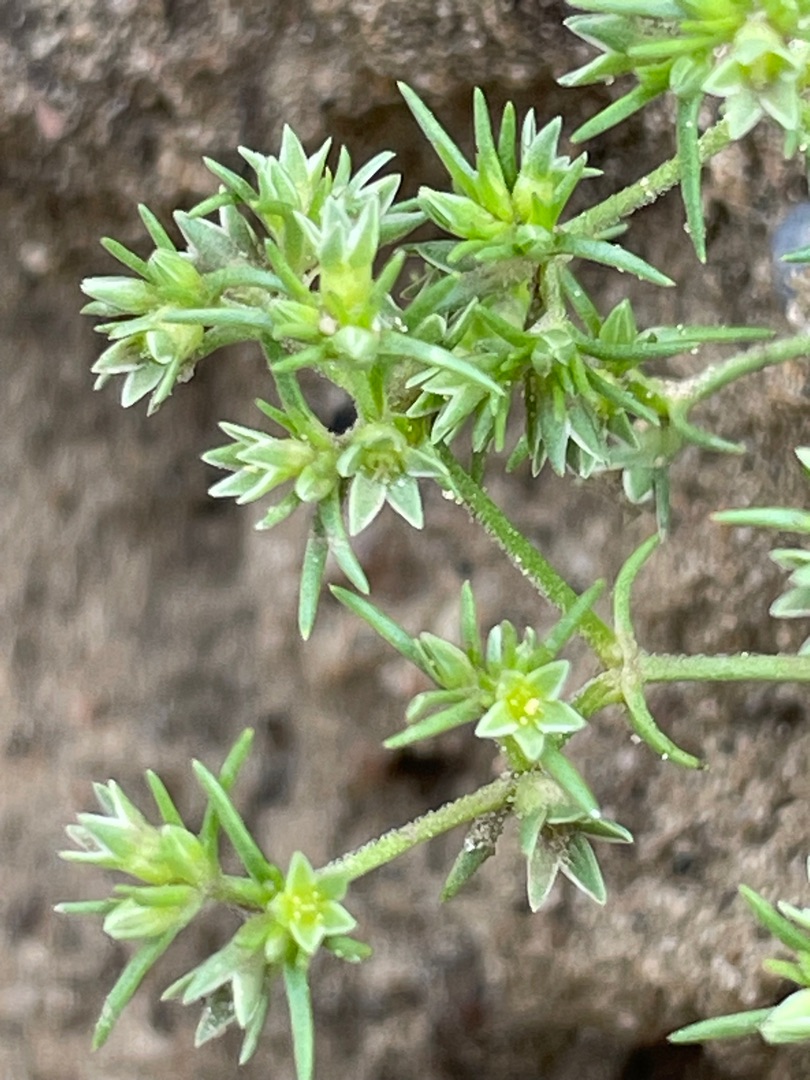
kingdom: Plantae
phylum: Tracheophyta
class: Magnoliopsida
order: Caryophyllales
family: Caryophyllaceae
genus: Scleranthus
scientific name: Scleranthus annuus
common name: Enårig knavel (underart)
